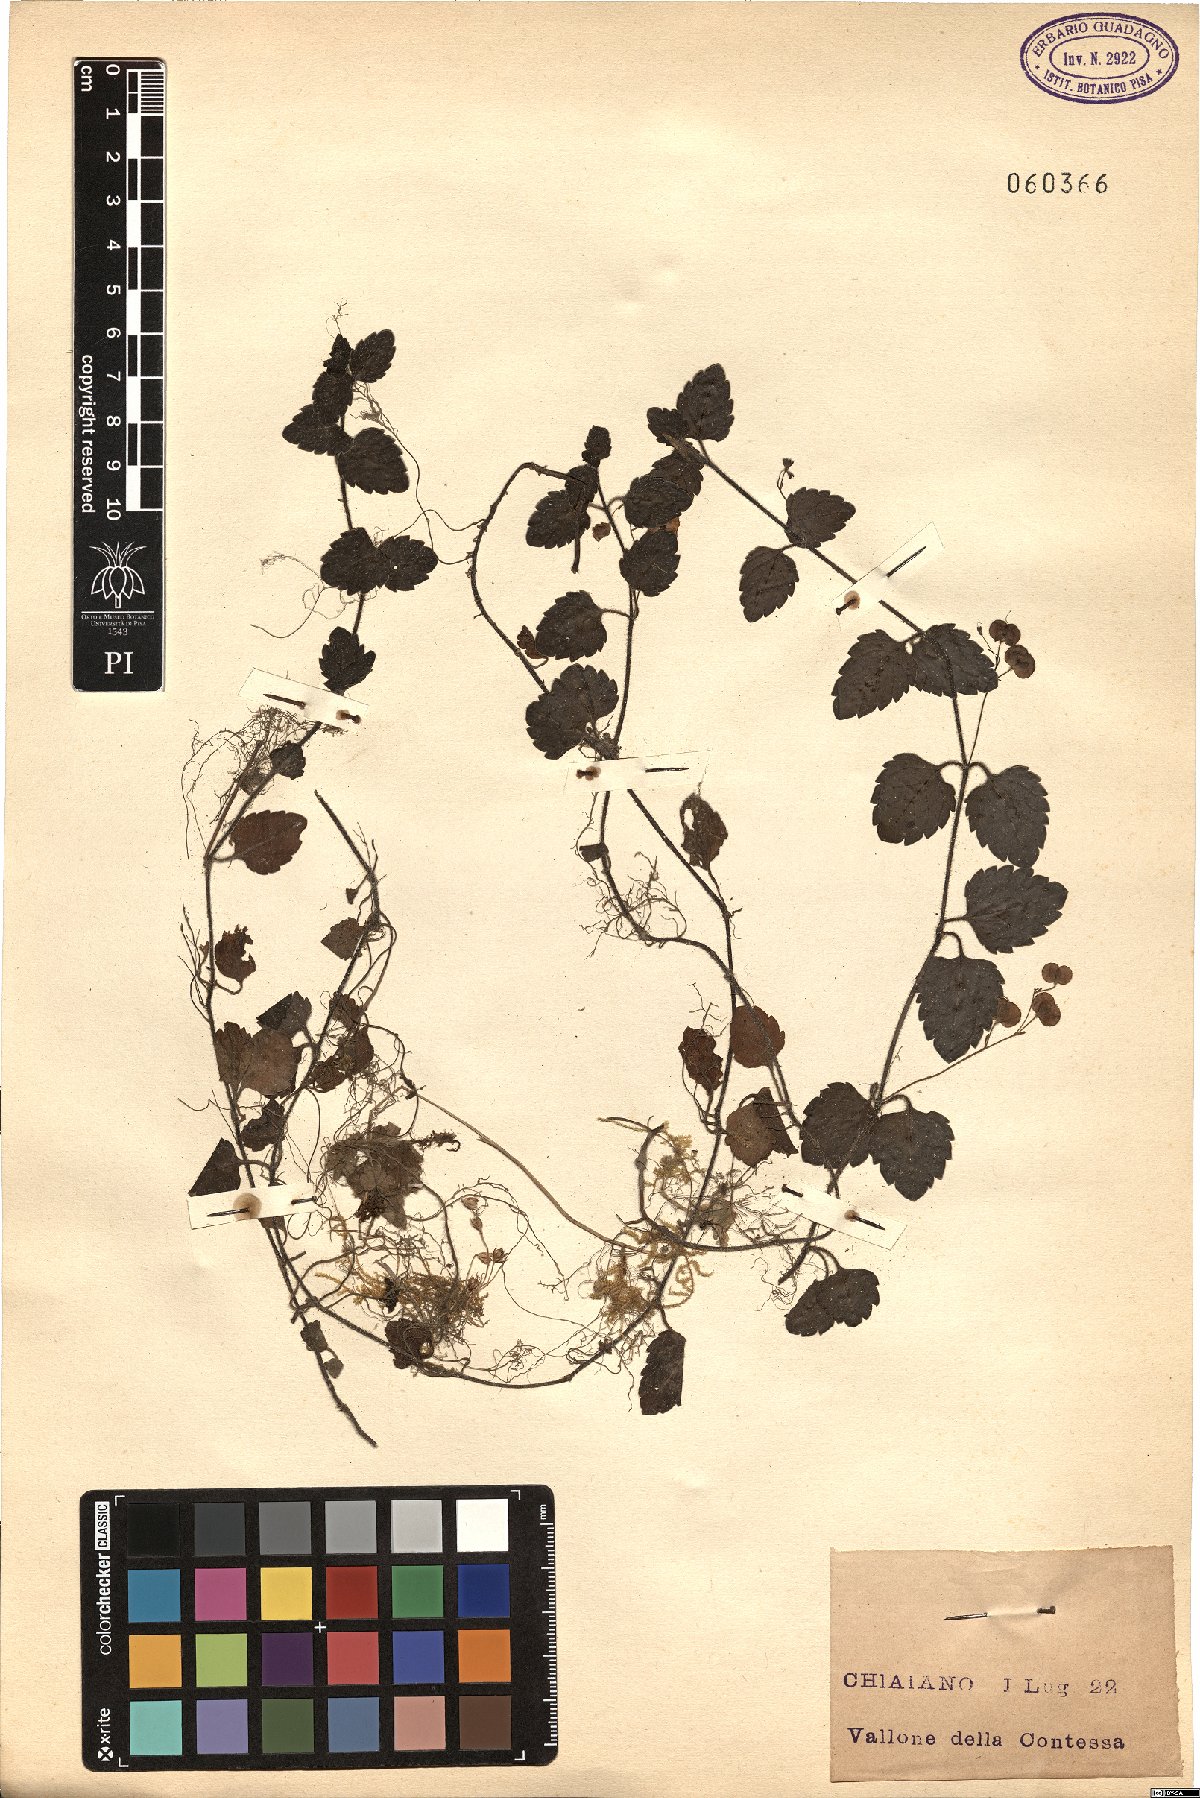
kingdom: Plantae
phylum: Tracheophyta
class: Magnoliopsida
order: Lamiales
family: Plantaginaceae
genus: Veronica
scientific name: Veronica
